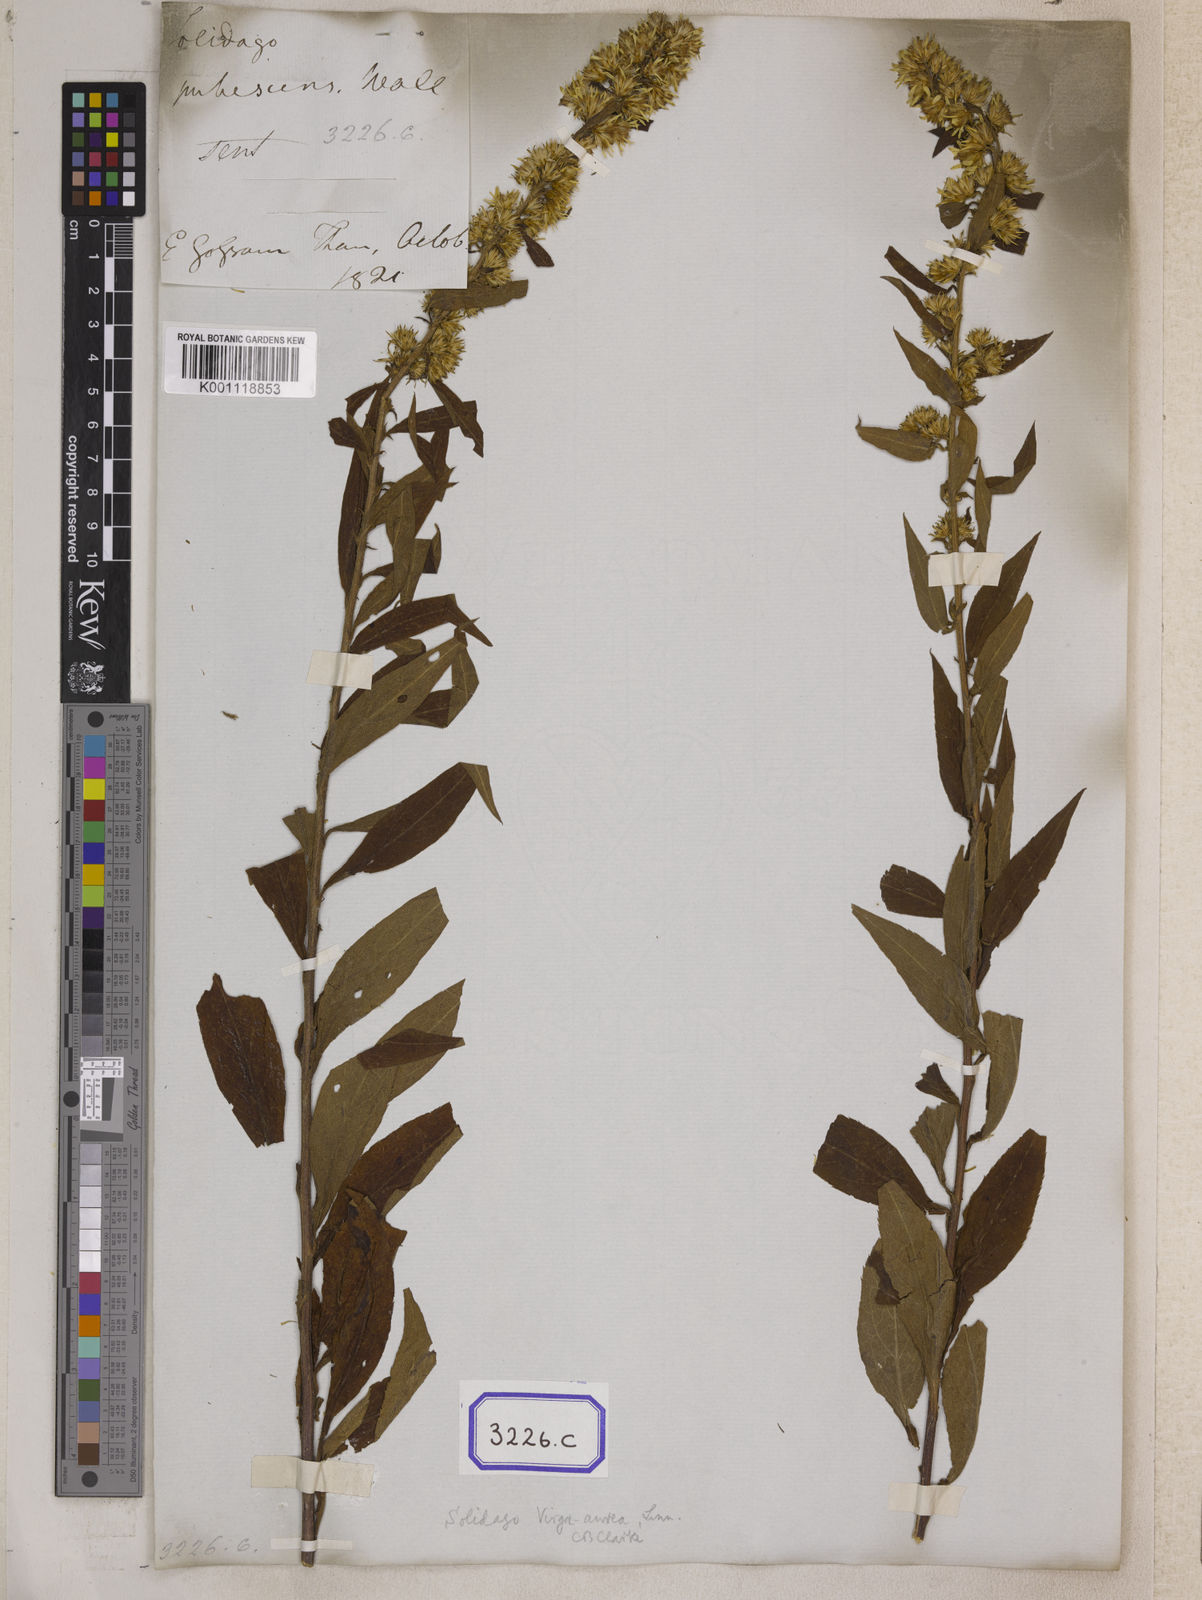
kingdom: Plantae
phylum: Tracheophyta
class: Magnoliopsida
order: Asterales
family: Asteraceae
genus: Solidago
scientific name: Solidago decurrens
